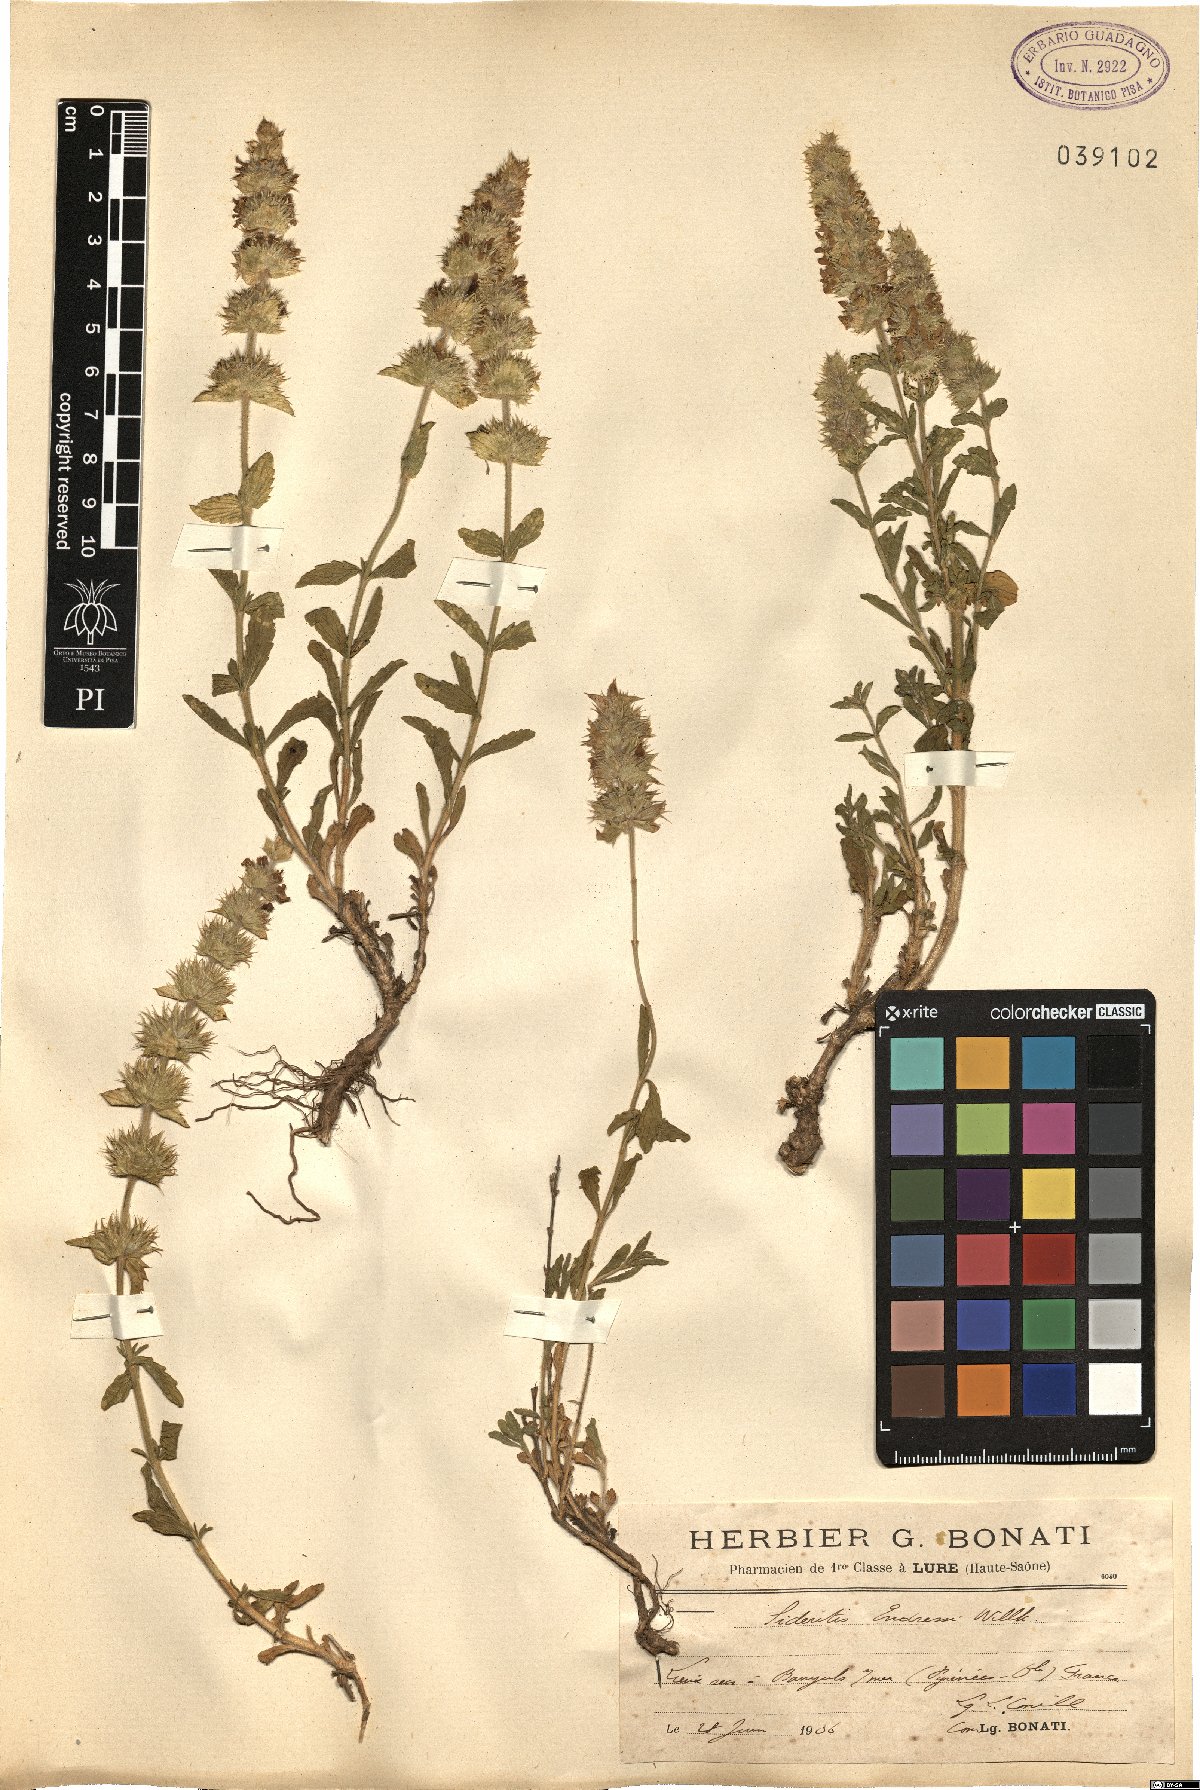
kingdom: Plantae
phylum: Tracheophyta
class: Magnoliopsida
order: Lamiales
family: Lamiaceae
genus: Sideritis
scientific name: Sideritis endressii
